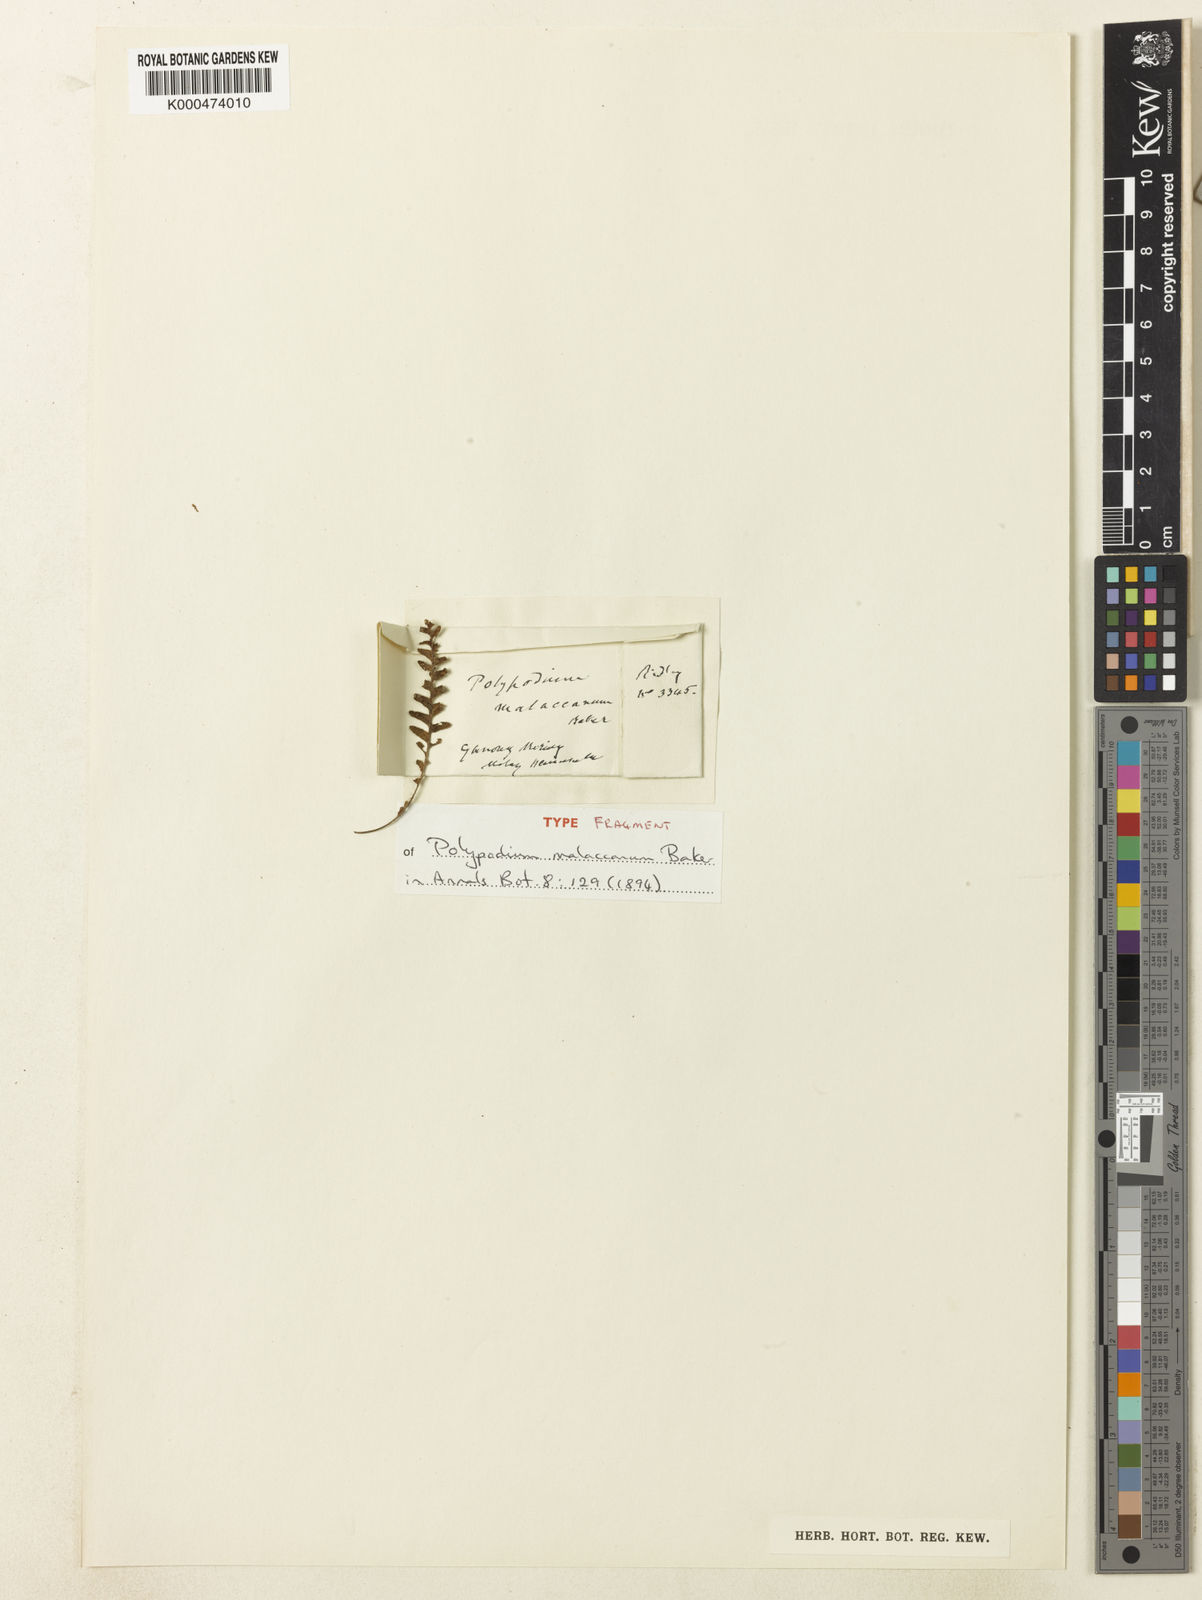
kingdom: Plantae
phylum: Tracheophyta
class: Polypodiopsida
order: Polypodiales
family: Polypodiaceae
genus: Dasygrammitis
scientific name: Dasygrammitis mollicoma
